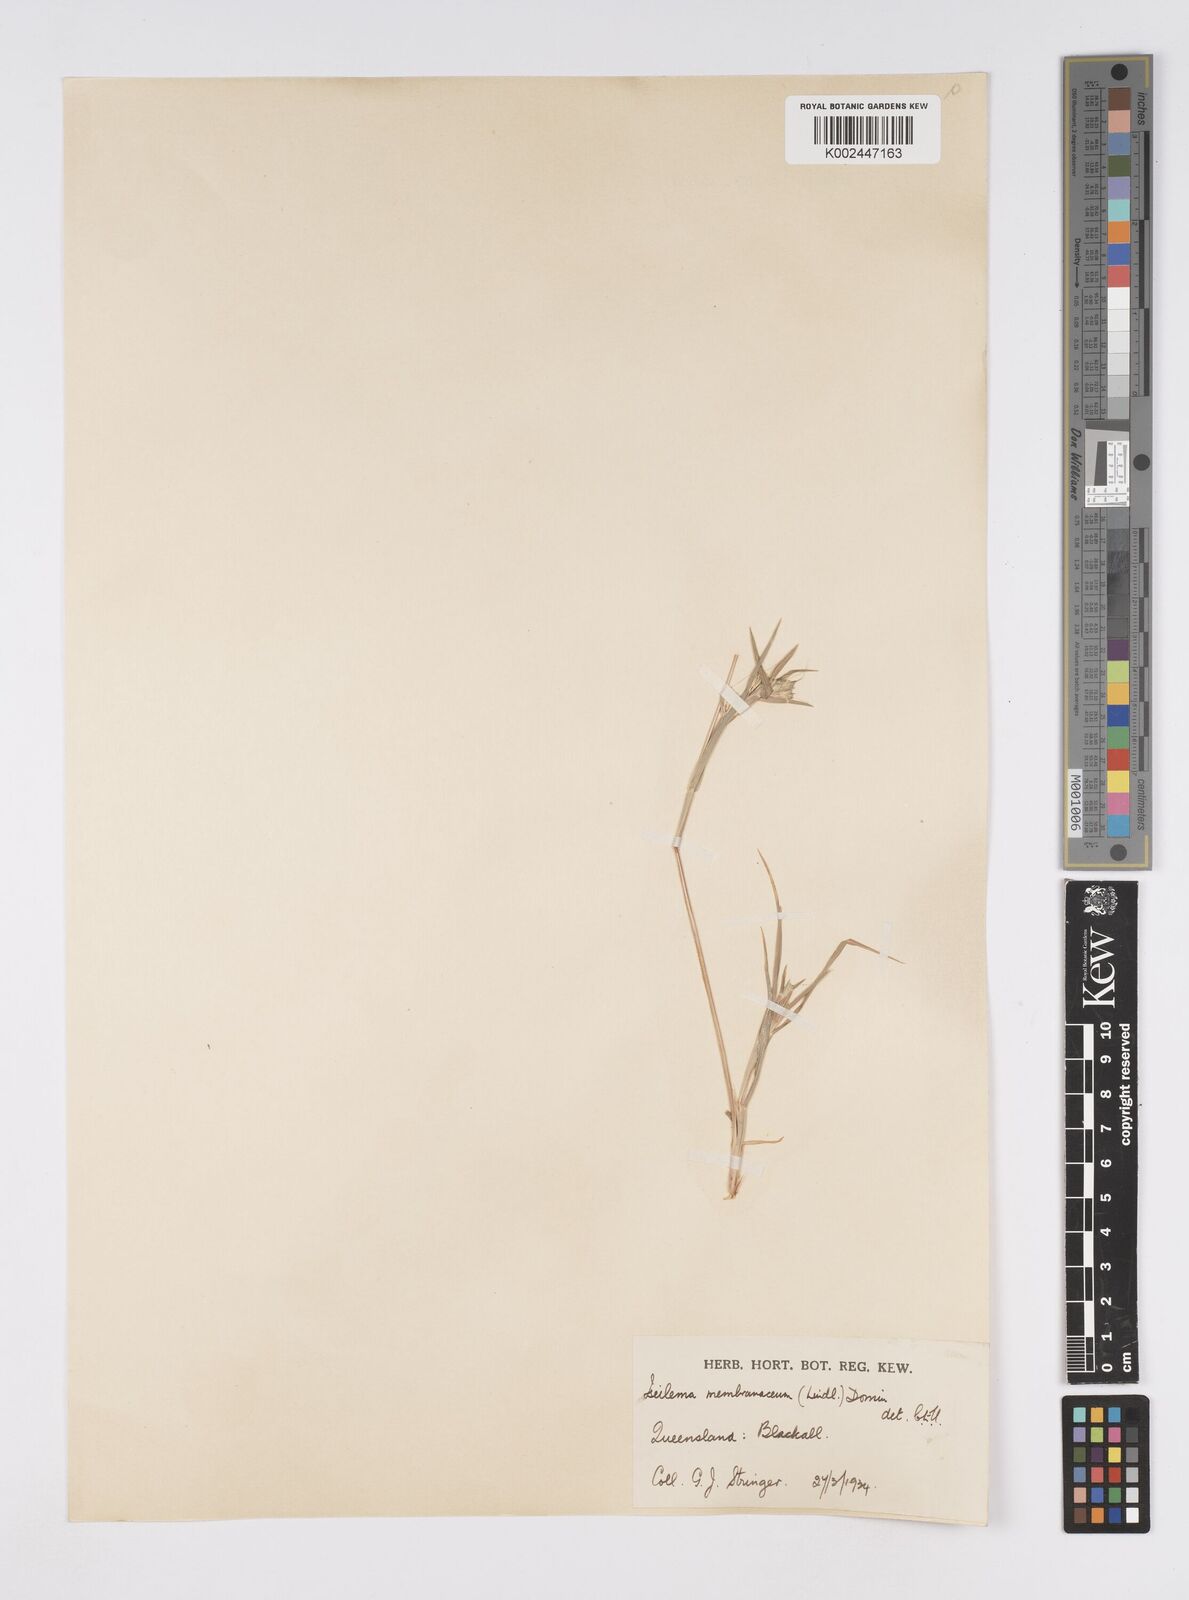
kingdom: Plantae
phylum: Tracheophyta
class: Liliopsida
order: Poales
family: Poaceae
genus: Iseilema
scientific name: Iseilema membranaceum
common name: Small flinders grass
